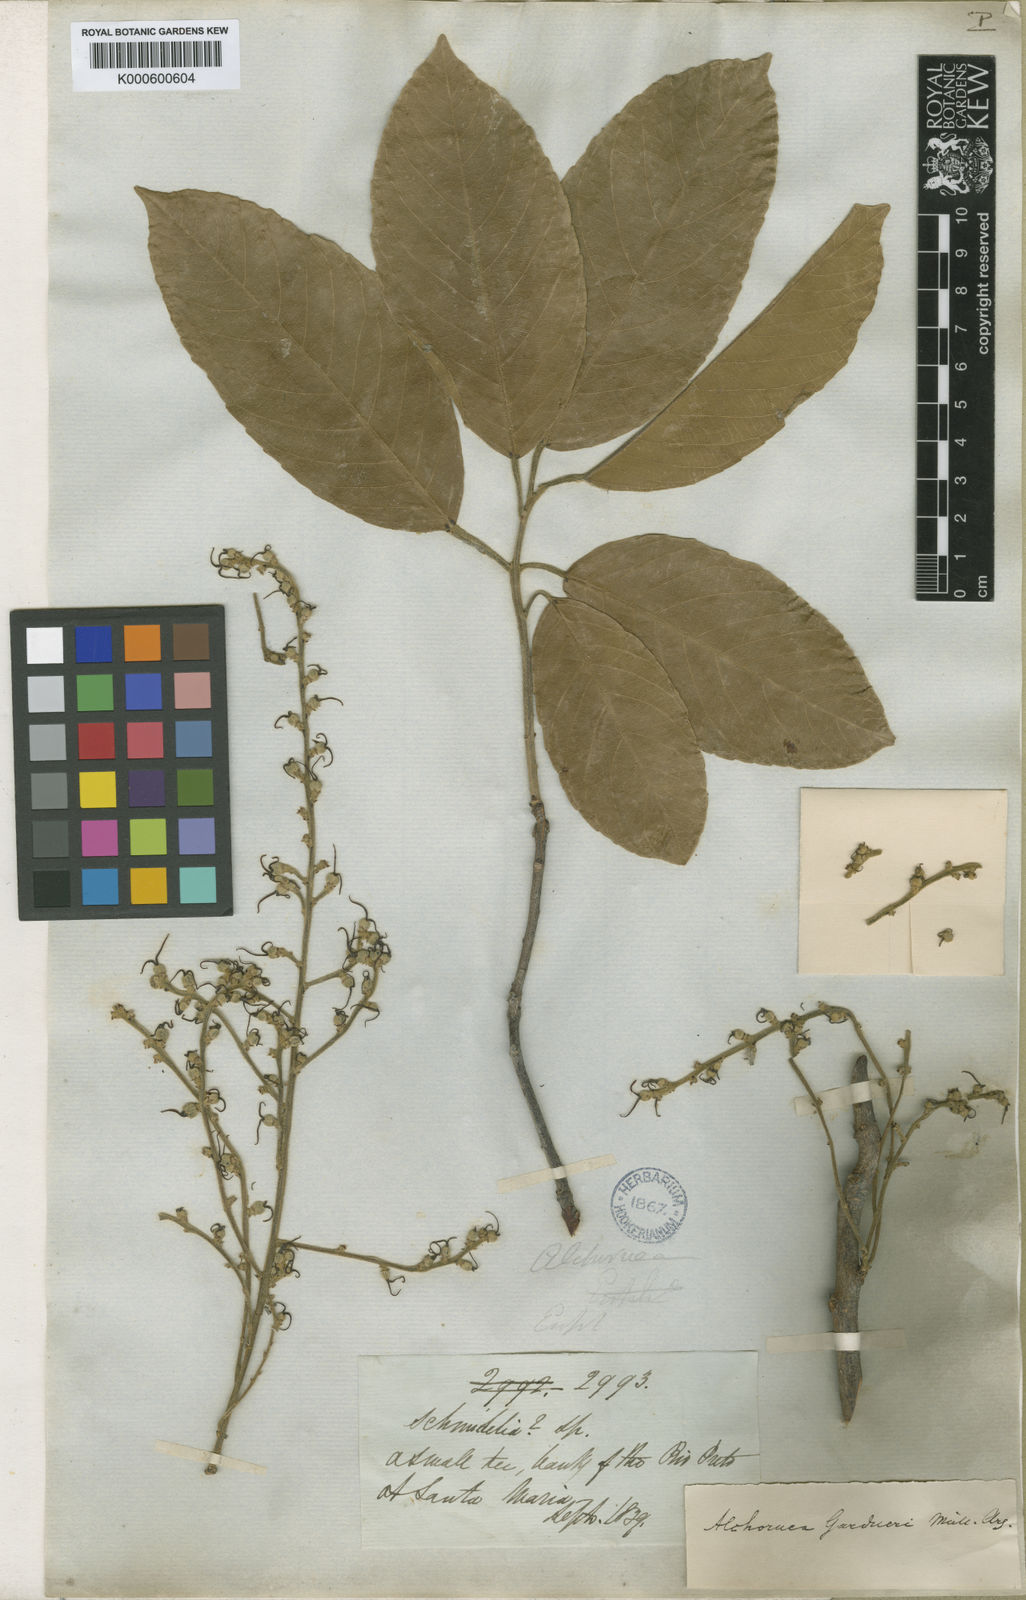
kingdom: Plantae
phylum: Tracheophyta
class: Magnoliopsida
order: Malpighiales
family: Euphorbiaceae
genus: Alchornea
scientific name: Alchornea discolor
